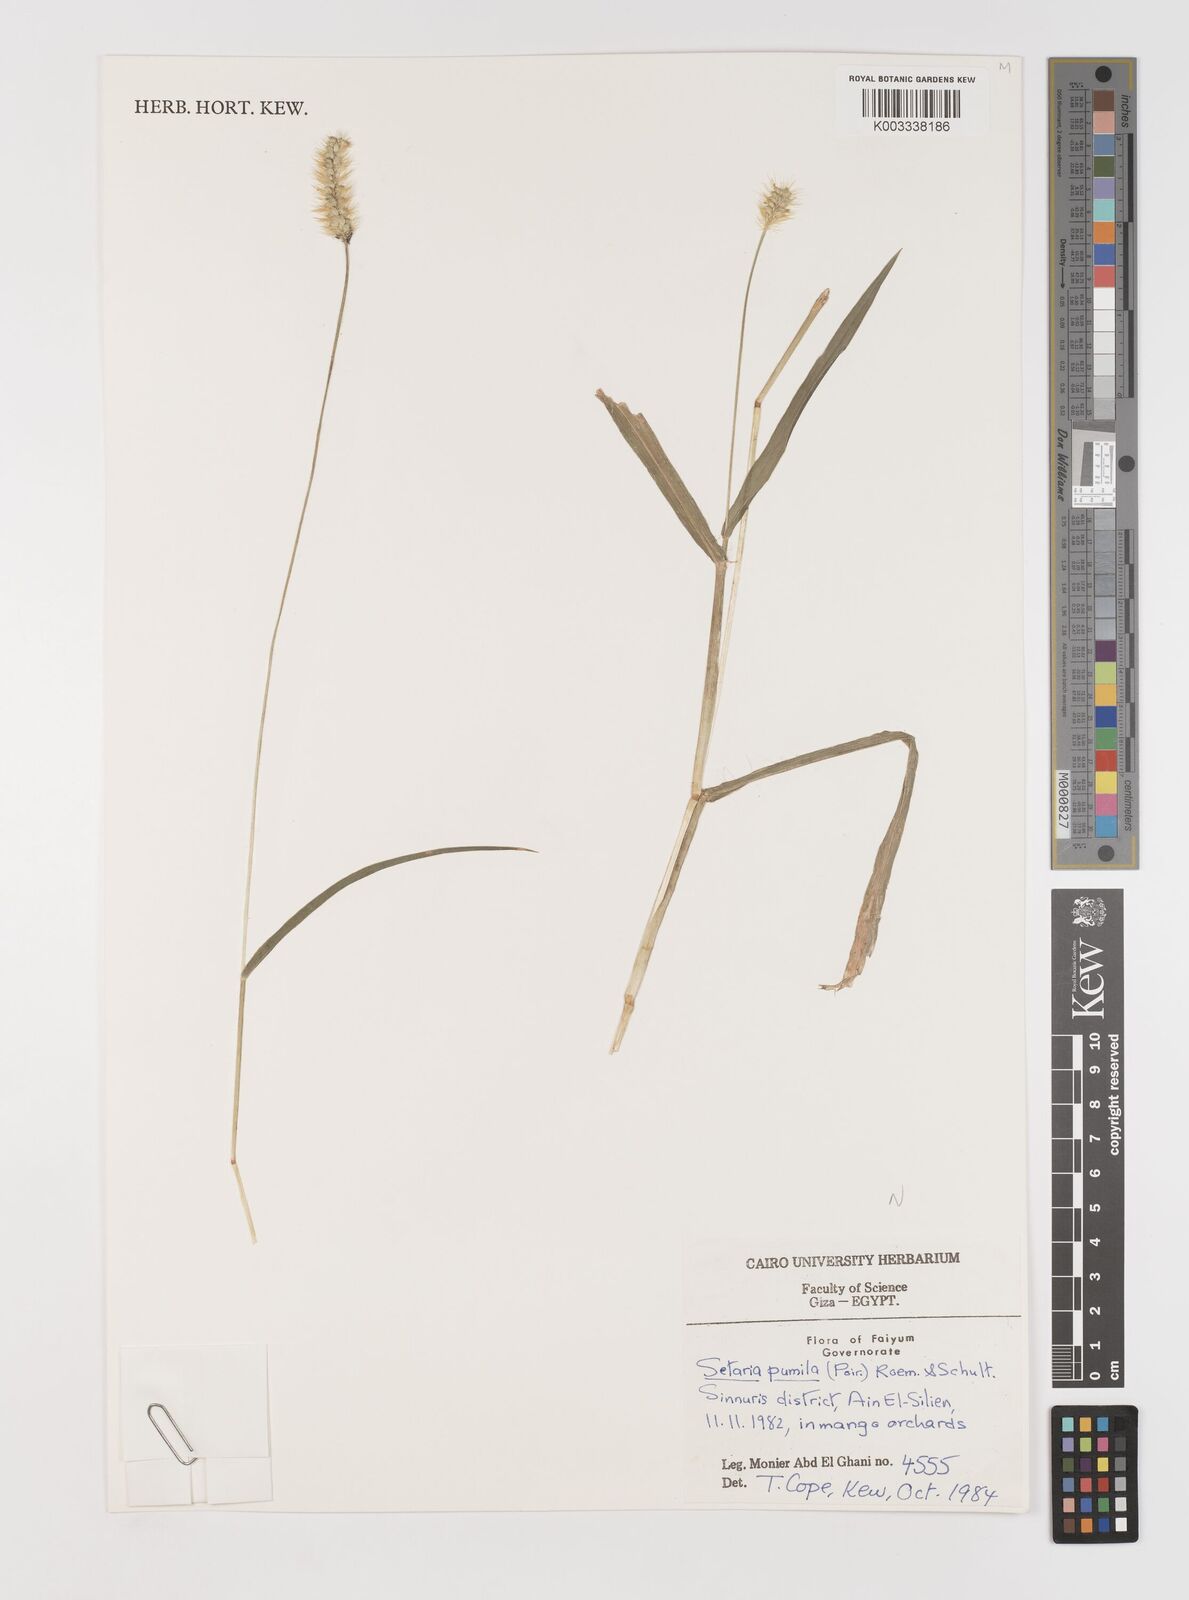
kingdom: Plantae
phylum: Tracheophyta
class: Liliopsida
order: Poales
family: Poaceae
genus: Setaria
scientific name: Setaria pumila
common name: Yellow bristle-grass
